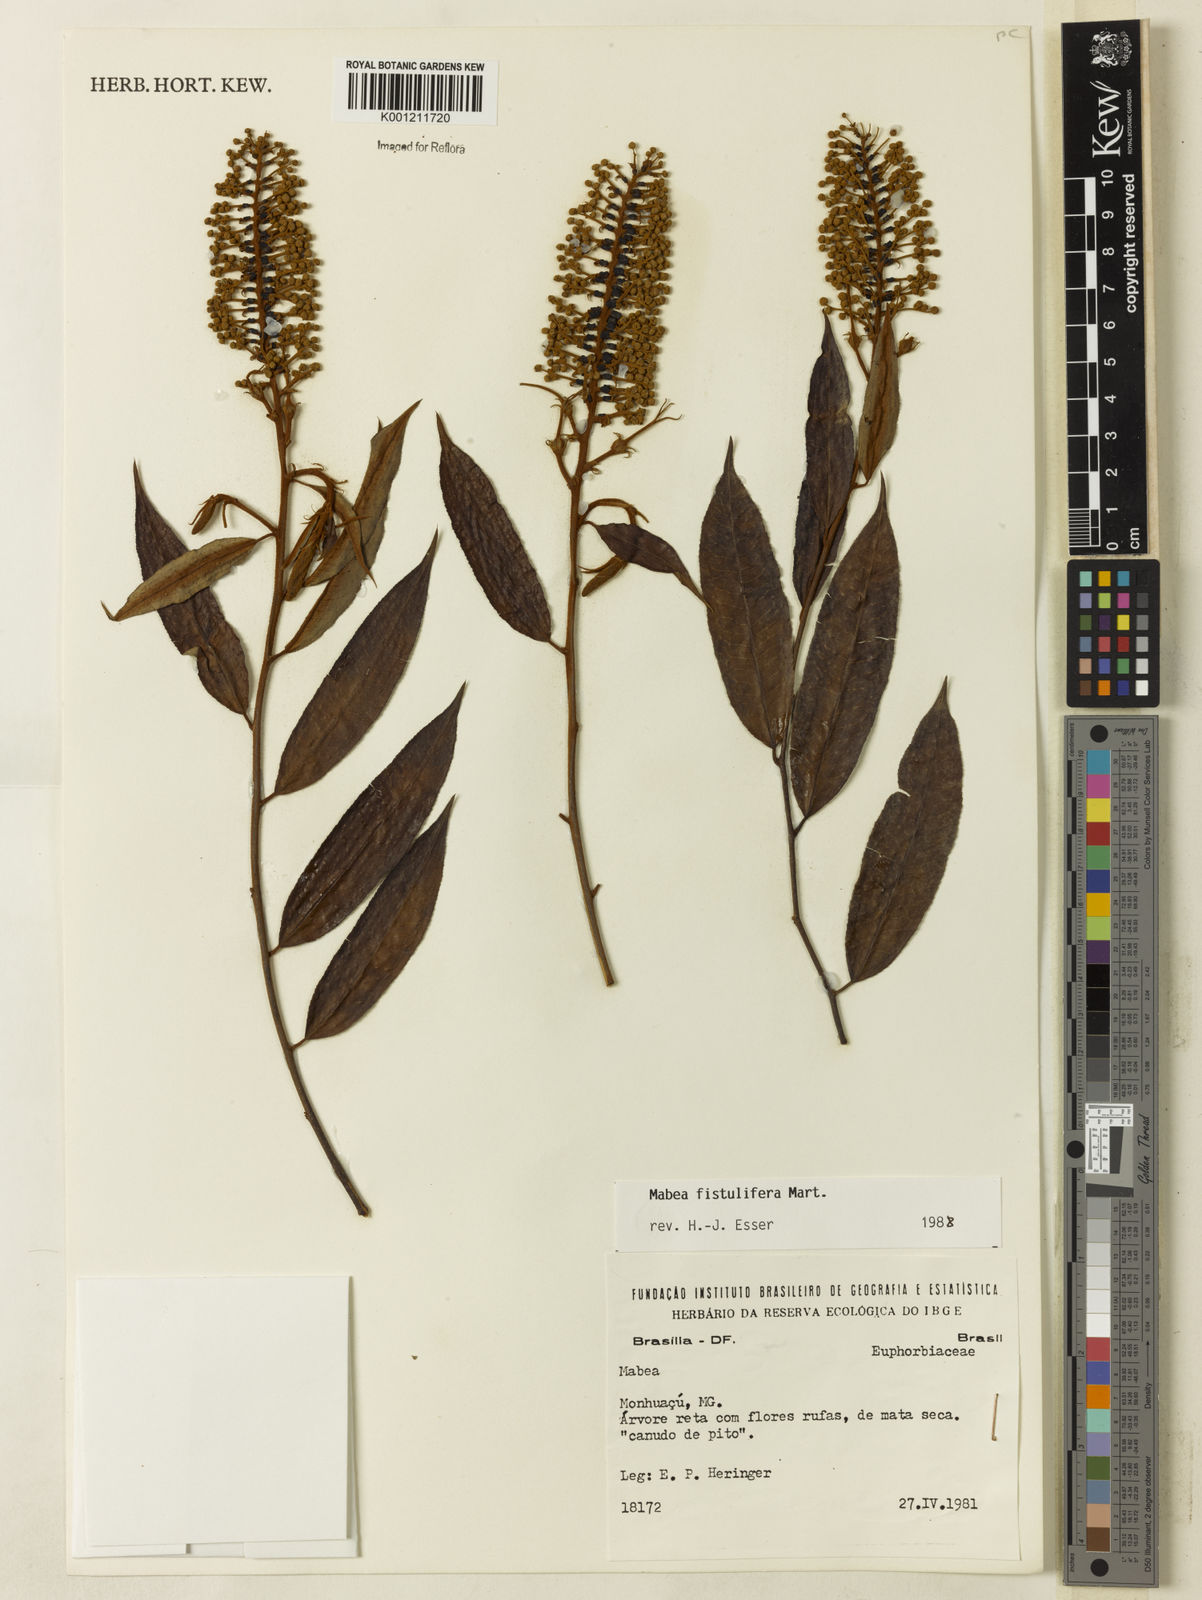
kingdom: Plantae
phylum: Tracheophyta
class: Magnoliopsida
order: Malpighiales
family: Euphorbiaceae
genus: Mabea
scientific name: Mabea fistulifera
